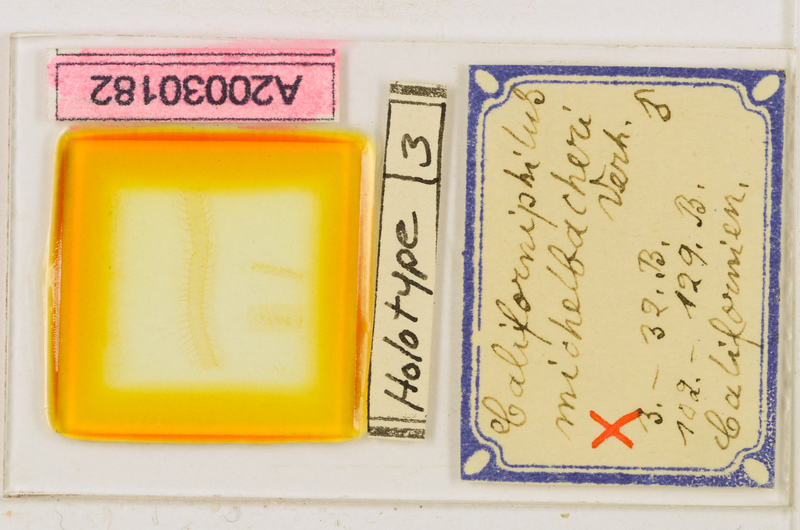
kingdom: Animalia
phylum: Arthropoda
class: Chilopoda
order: Geophilomorpha
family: Himantariidae
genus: Himantarium
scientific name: Himantarium gabrielis
